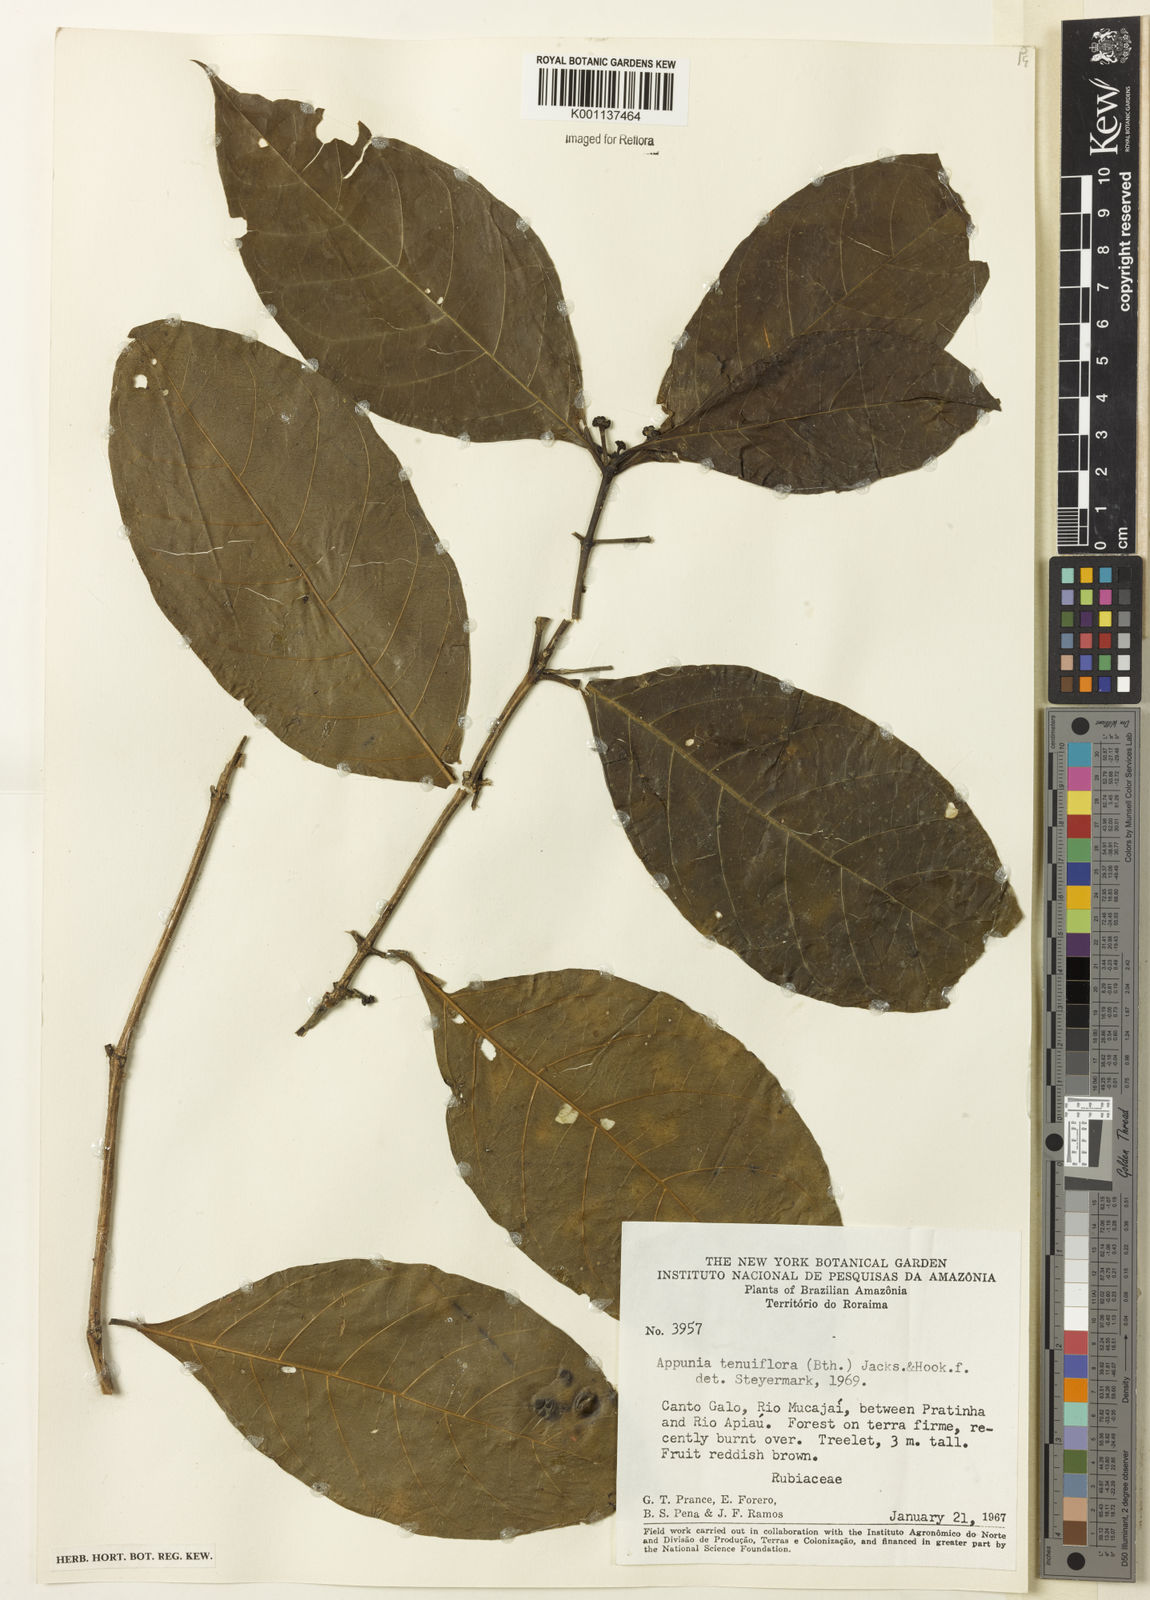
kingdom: Plantae
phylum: Tracheophyta
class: Magnoliopsida
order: Gentianales
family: Rubiaceae
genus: Appunia
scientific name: Appunia tenuiflora
